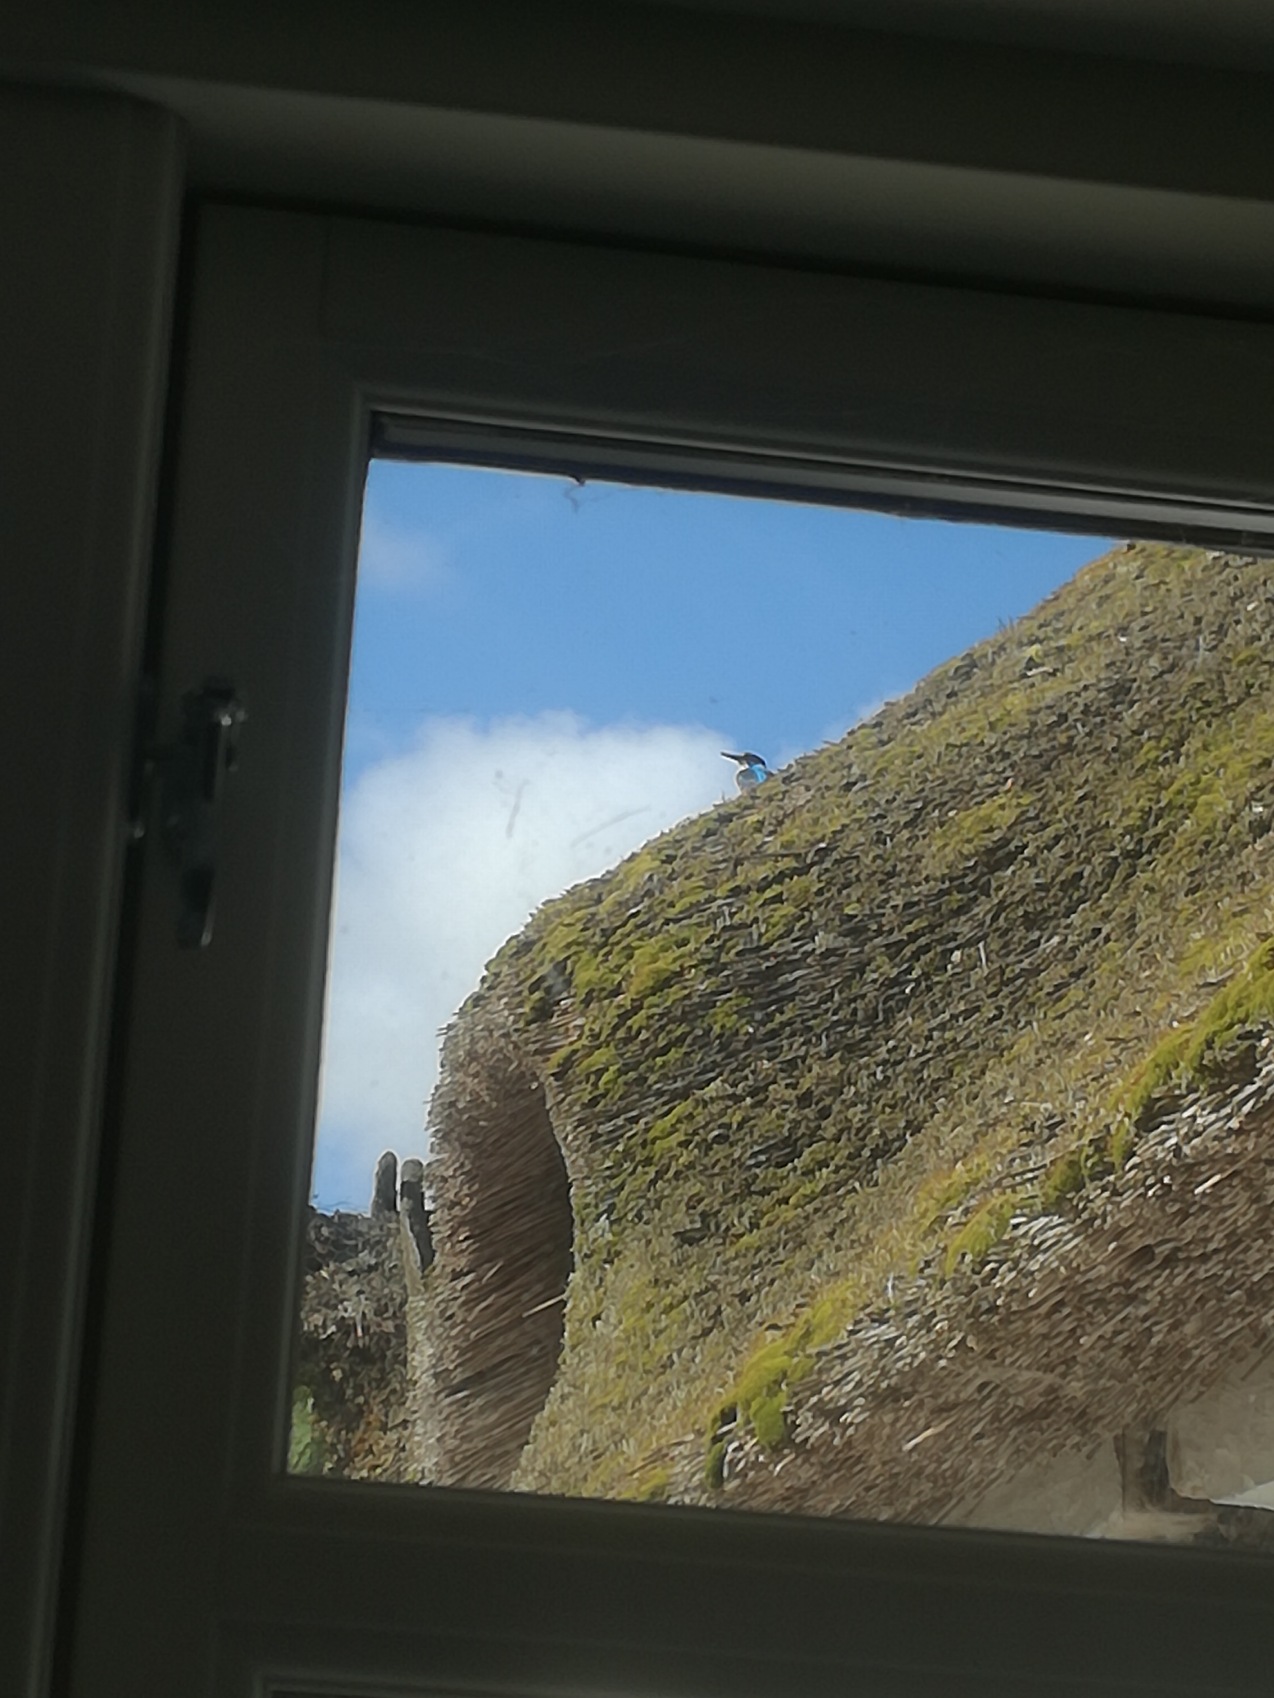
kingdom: Animalia
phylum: Chordata
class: Aves
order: Coraciiformes
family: Alcedinidae
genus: Alcedo
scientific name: Alcedo atthis
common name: Isfugl
